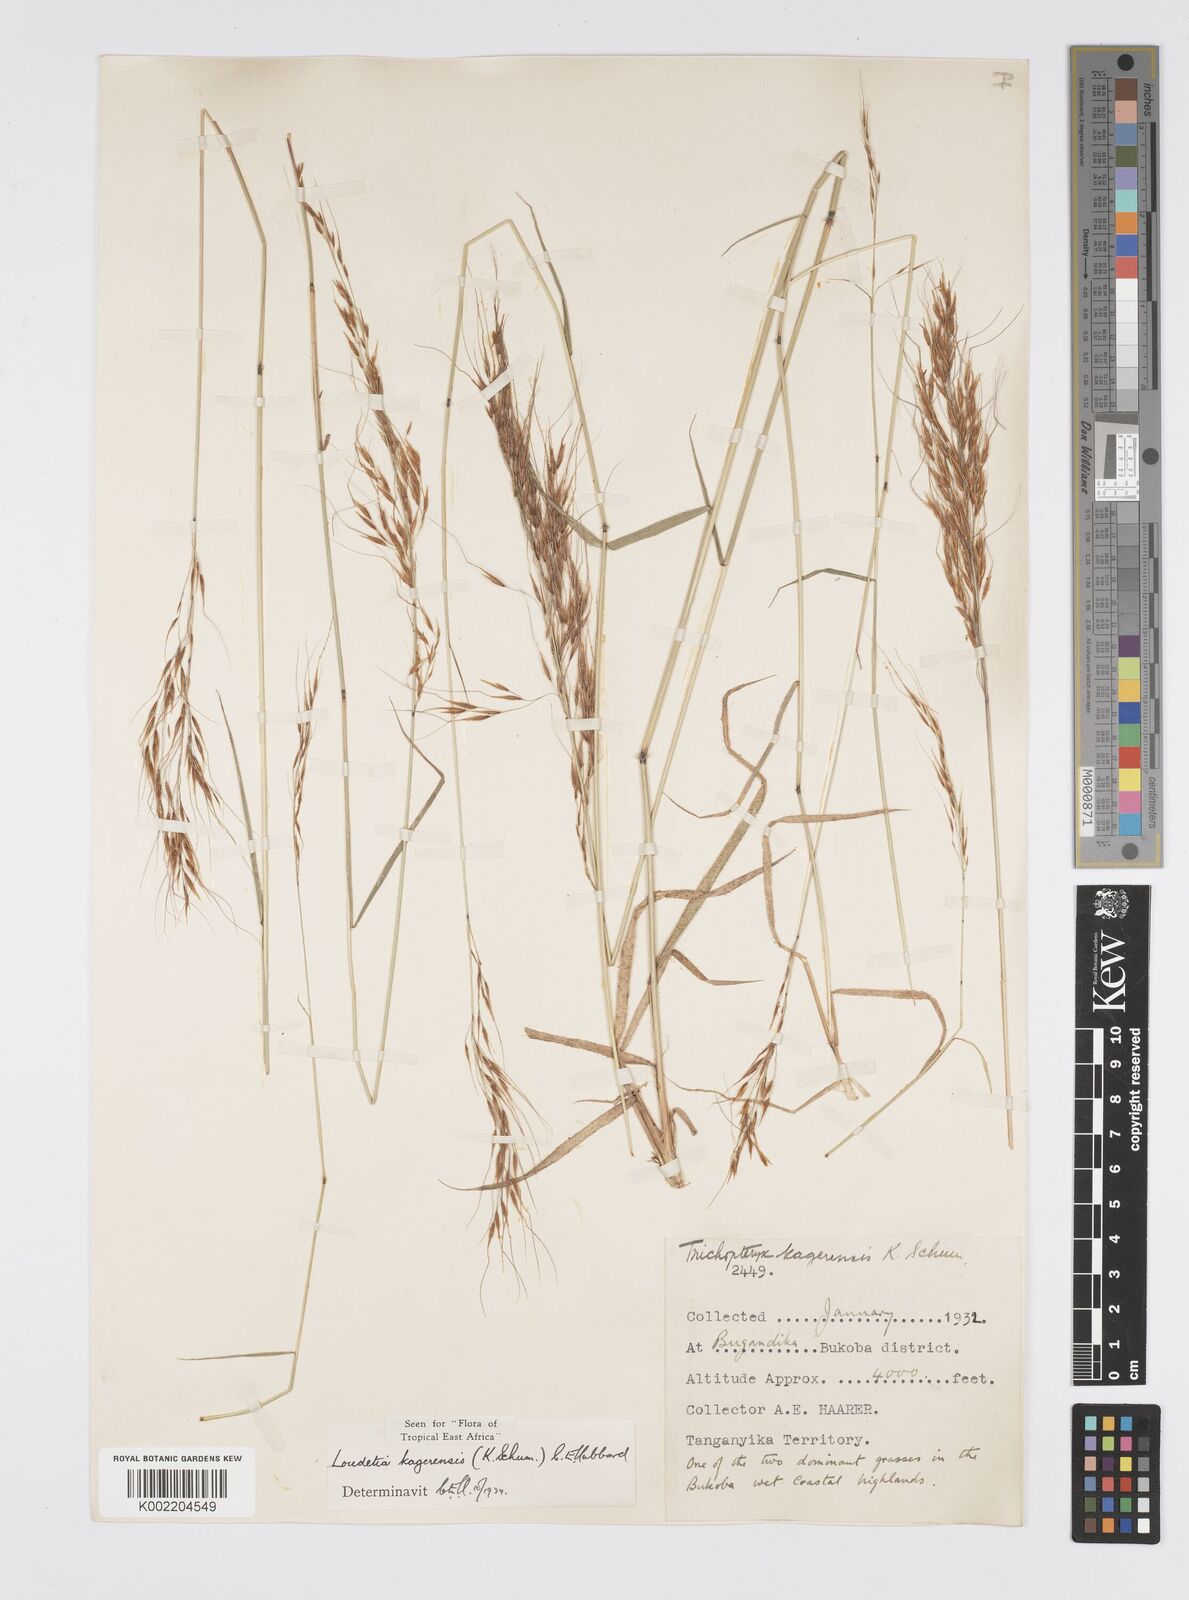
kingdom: Plantae
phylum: Tracheophyta
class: Liliopsida
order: Poales
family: Poaceae
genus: Loudetia
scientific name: Loudetia kagerensis
